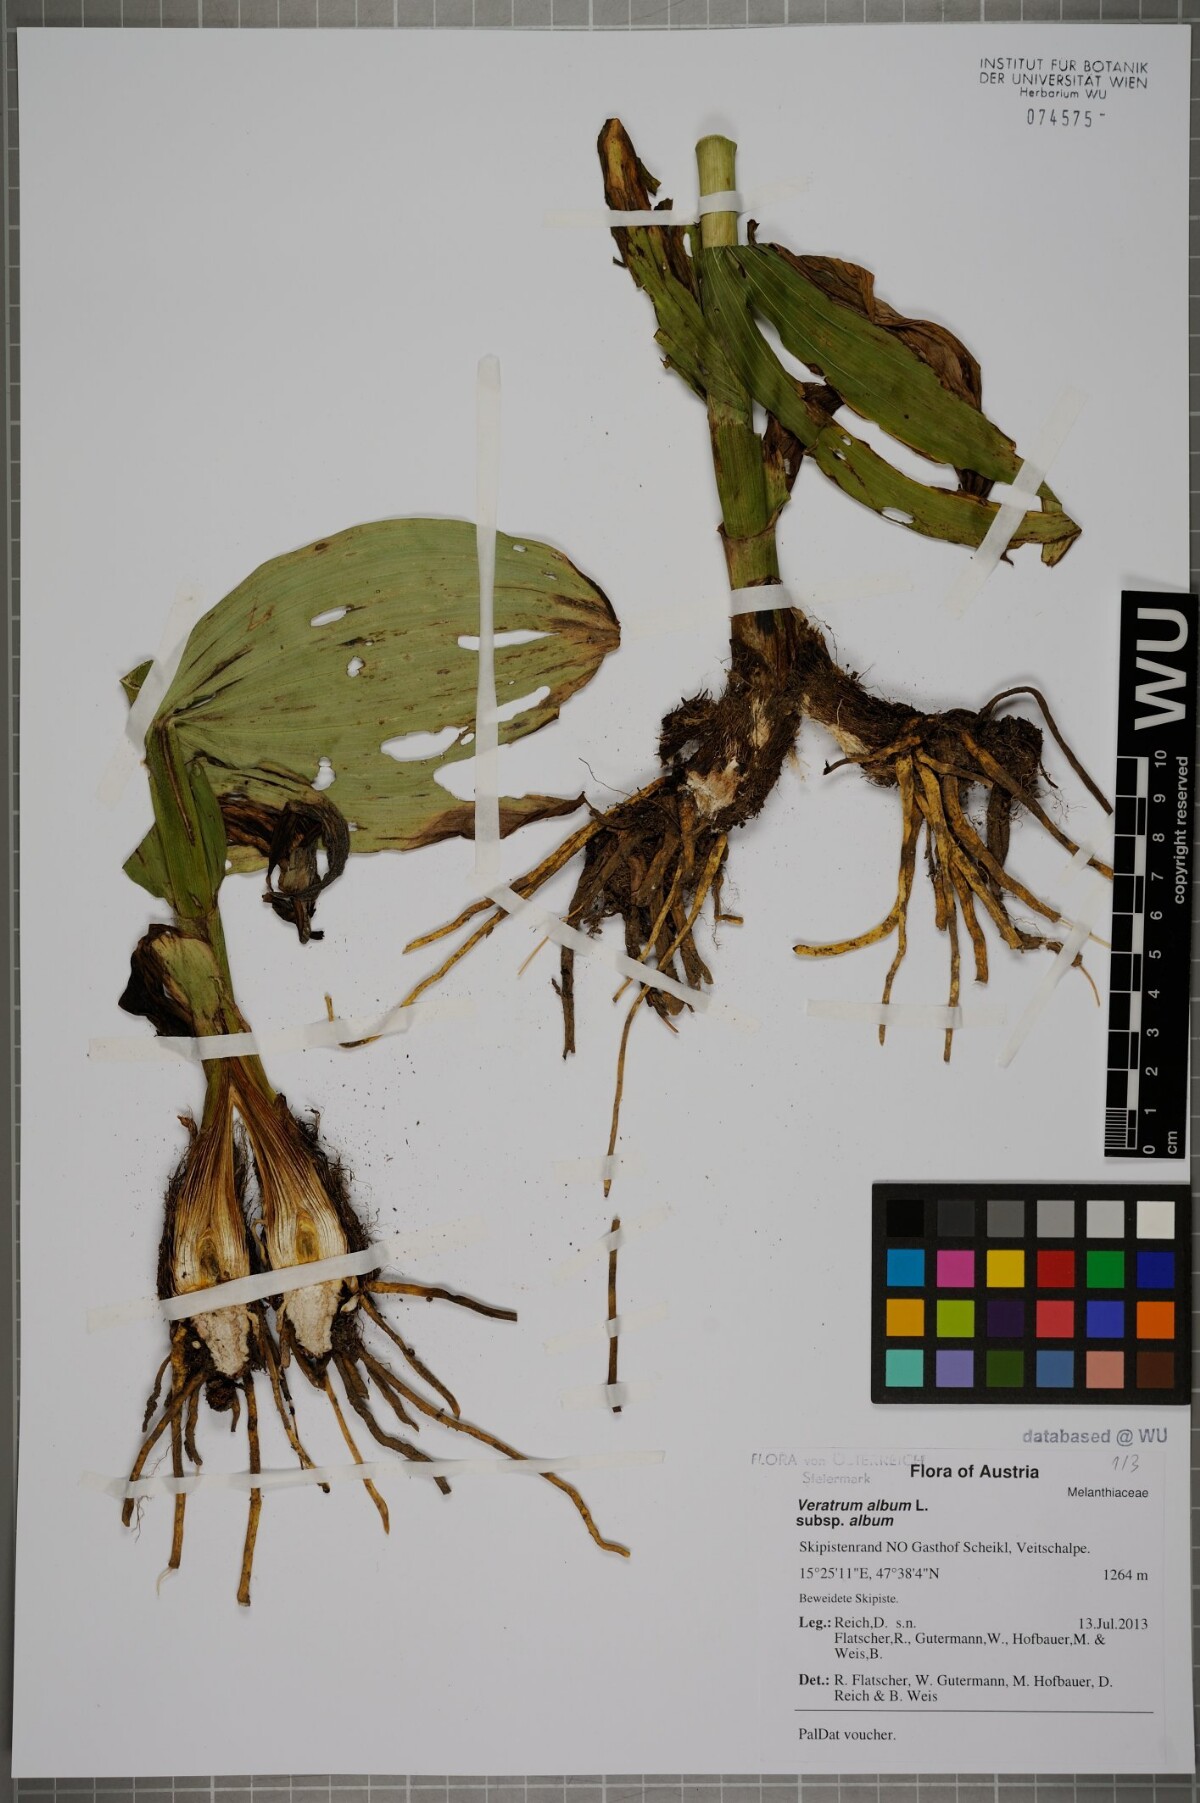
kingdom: Plantae
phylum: Tracheophyta
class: Liliopsida
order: Liliales
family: Melanthiaceae
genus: Veratrum
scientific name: Veratrum album
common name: White veratrum
